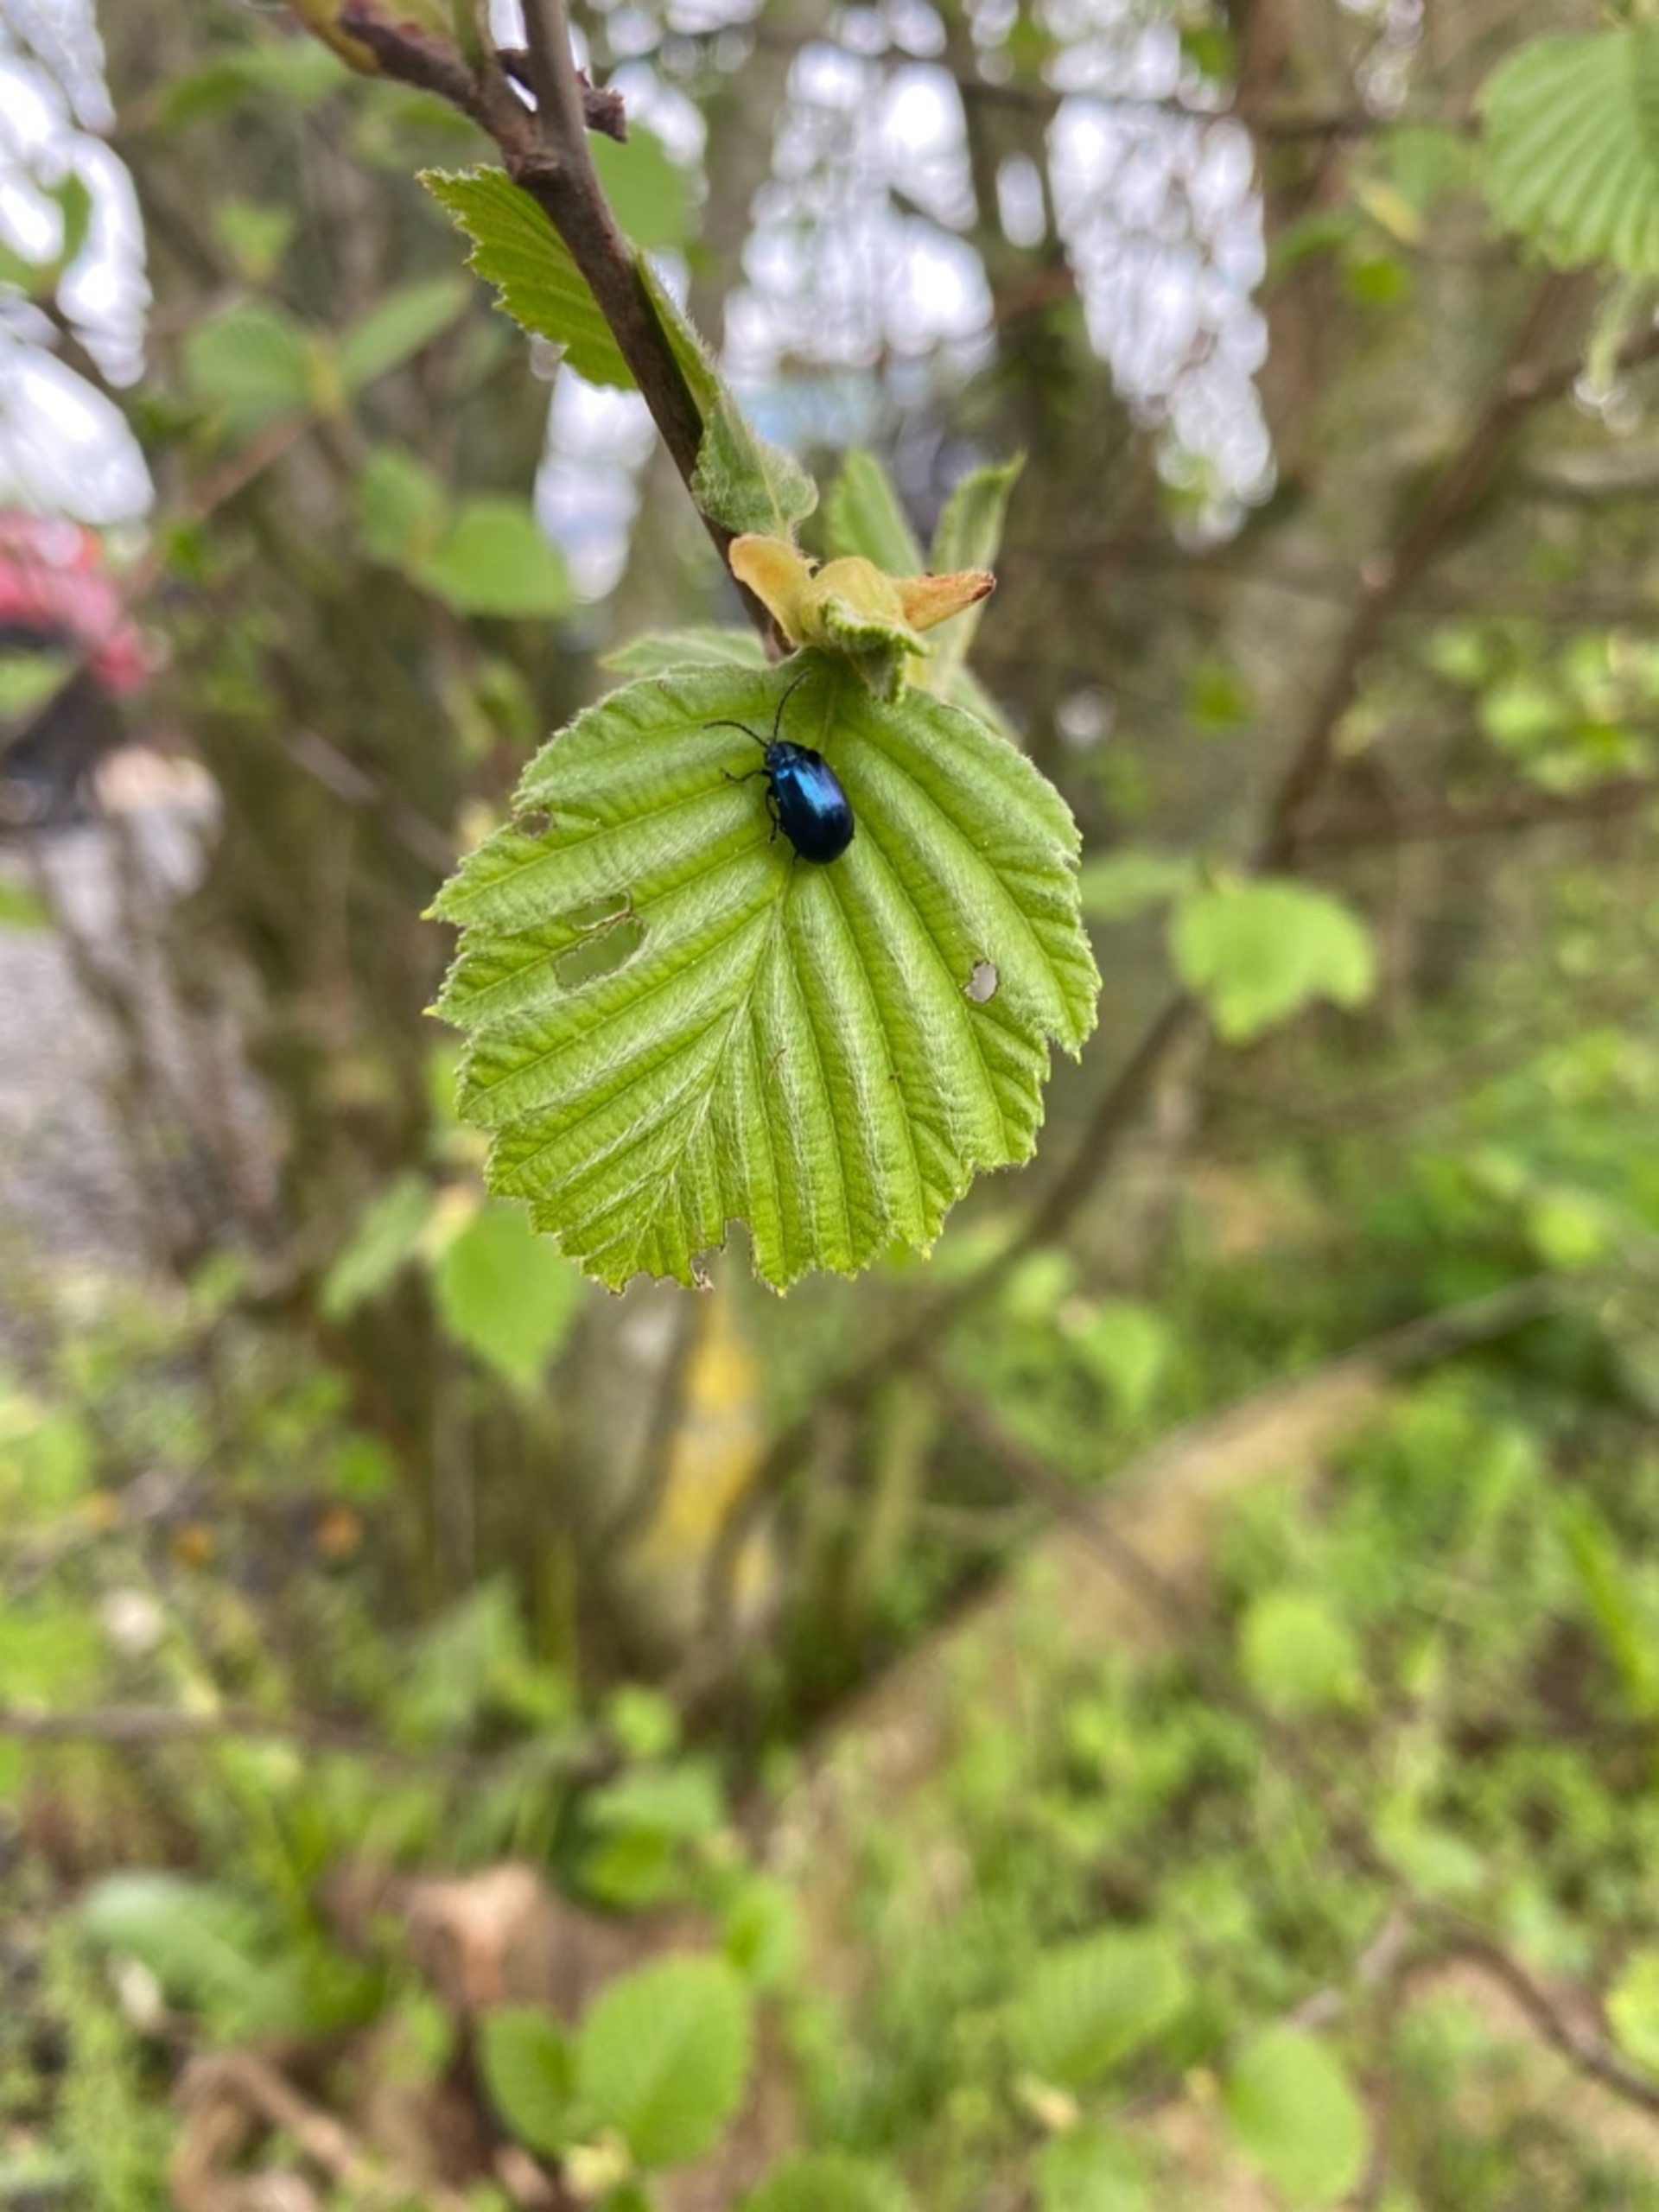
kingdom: Animalia
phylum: Arthropoda
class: Insecta
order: Coleoptera
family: Chrysomelidae
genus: Agelastica
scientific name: Agelastica alni
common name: Ellebladbille
